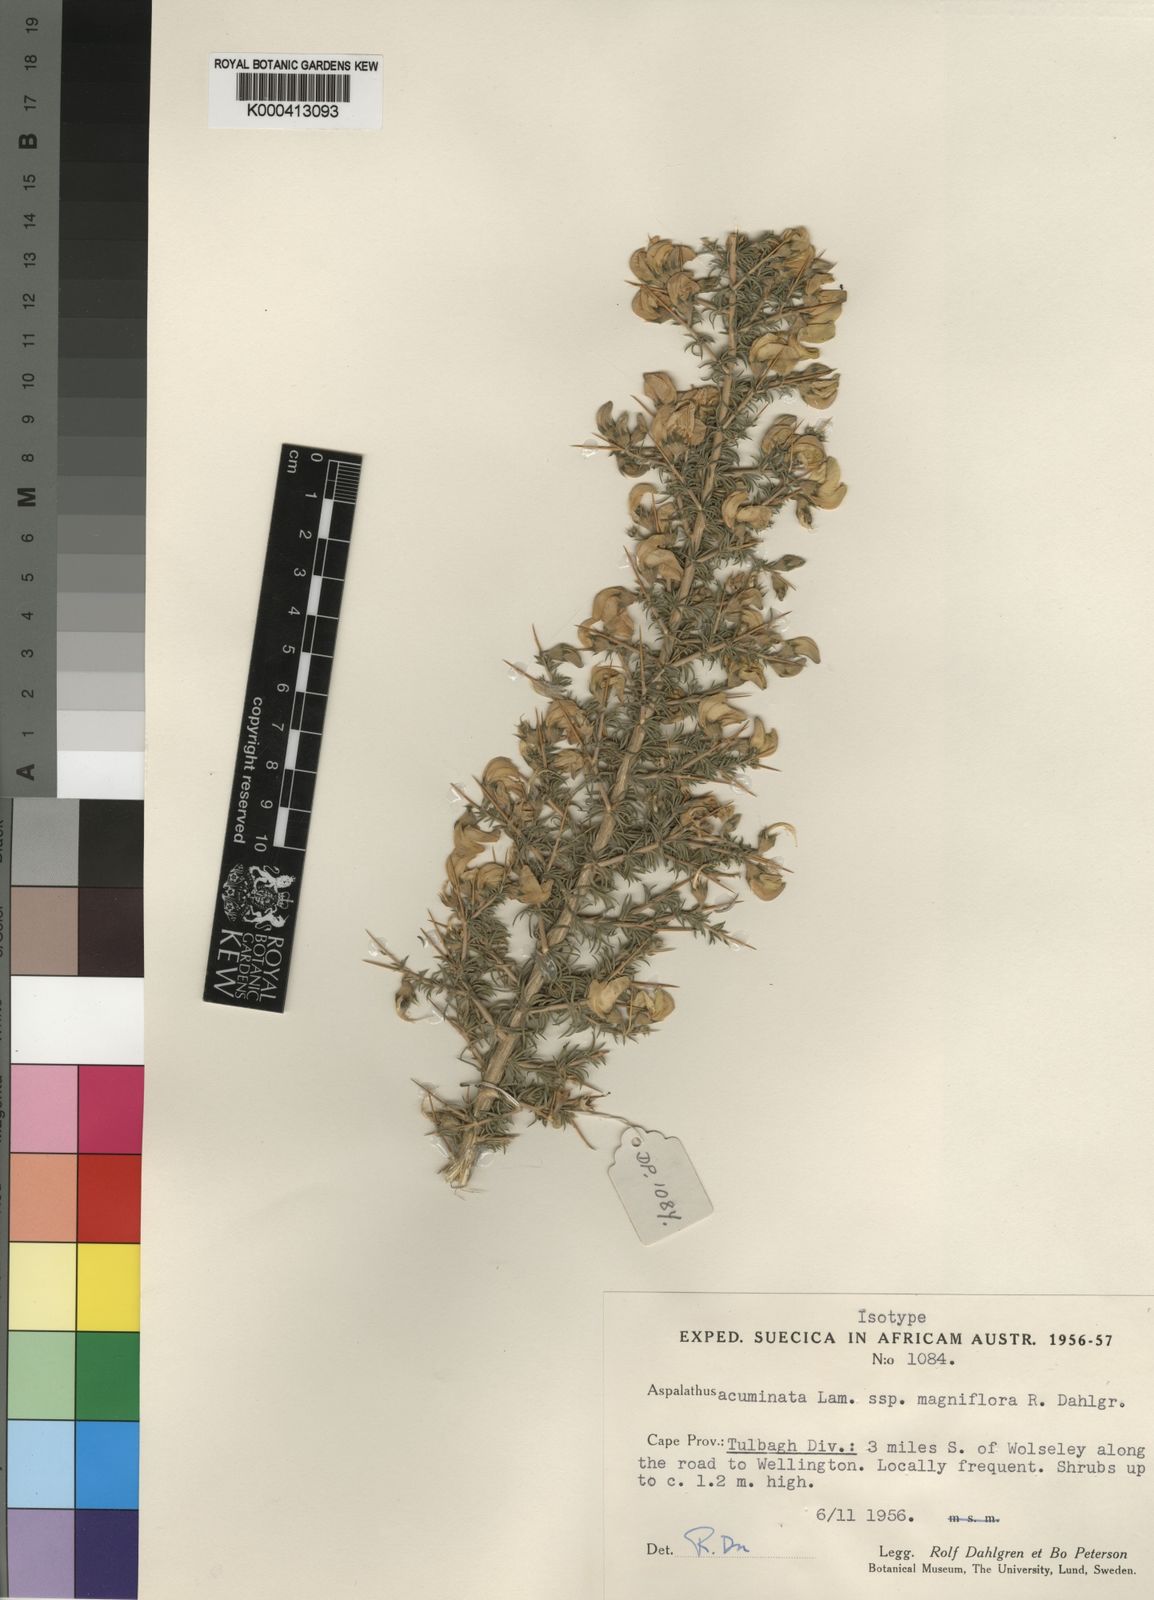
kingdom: Plantae
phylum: Tracheophyta
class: Magnoliopsida
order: Fabales
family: Fabaceae
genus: Aspalathus
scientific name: Aspalathus tulbaghensis
